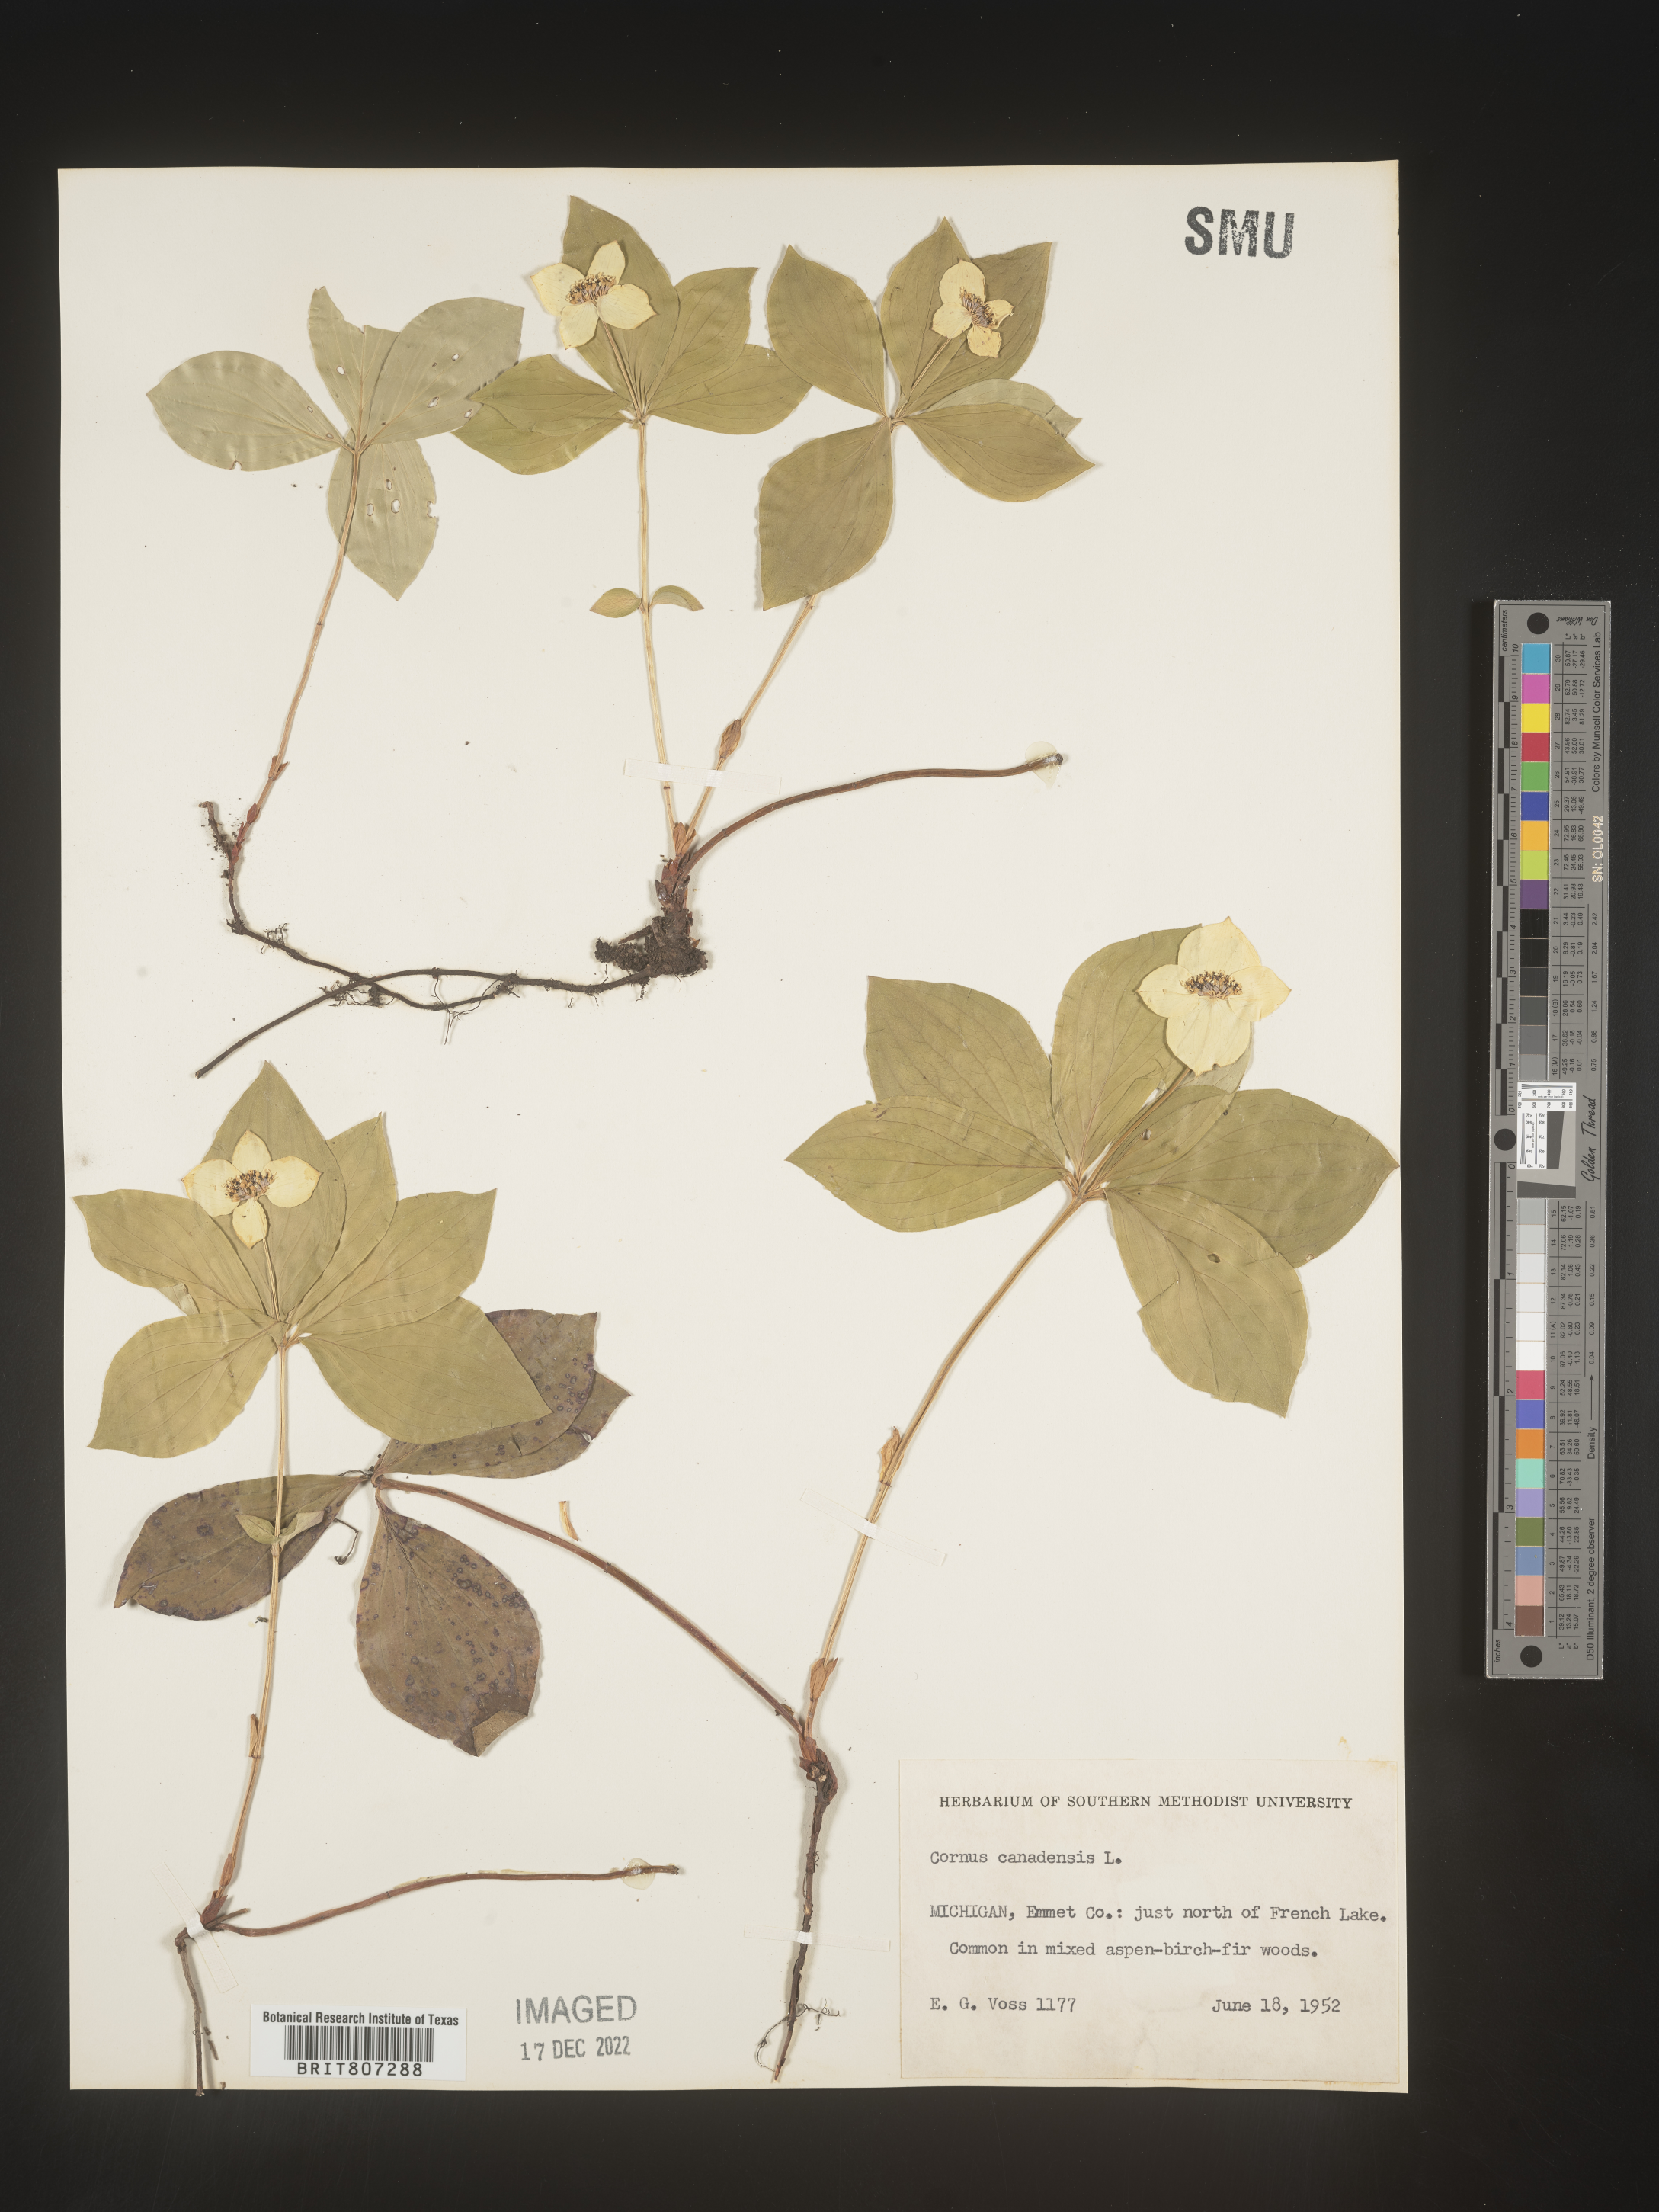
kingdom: Plantae
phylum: Tracheophyta
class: Magnoliopsida
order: Cornales
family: Cornaceae
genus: Cornus
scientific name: Cornus canadensis
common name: Creeping dogwood
